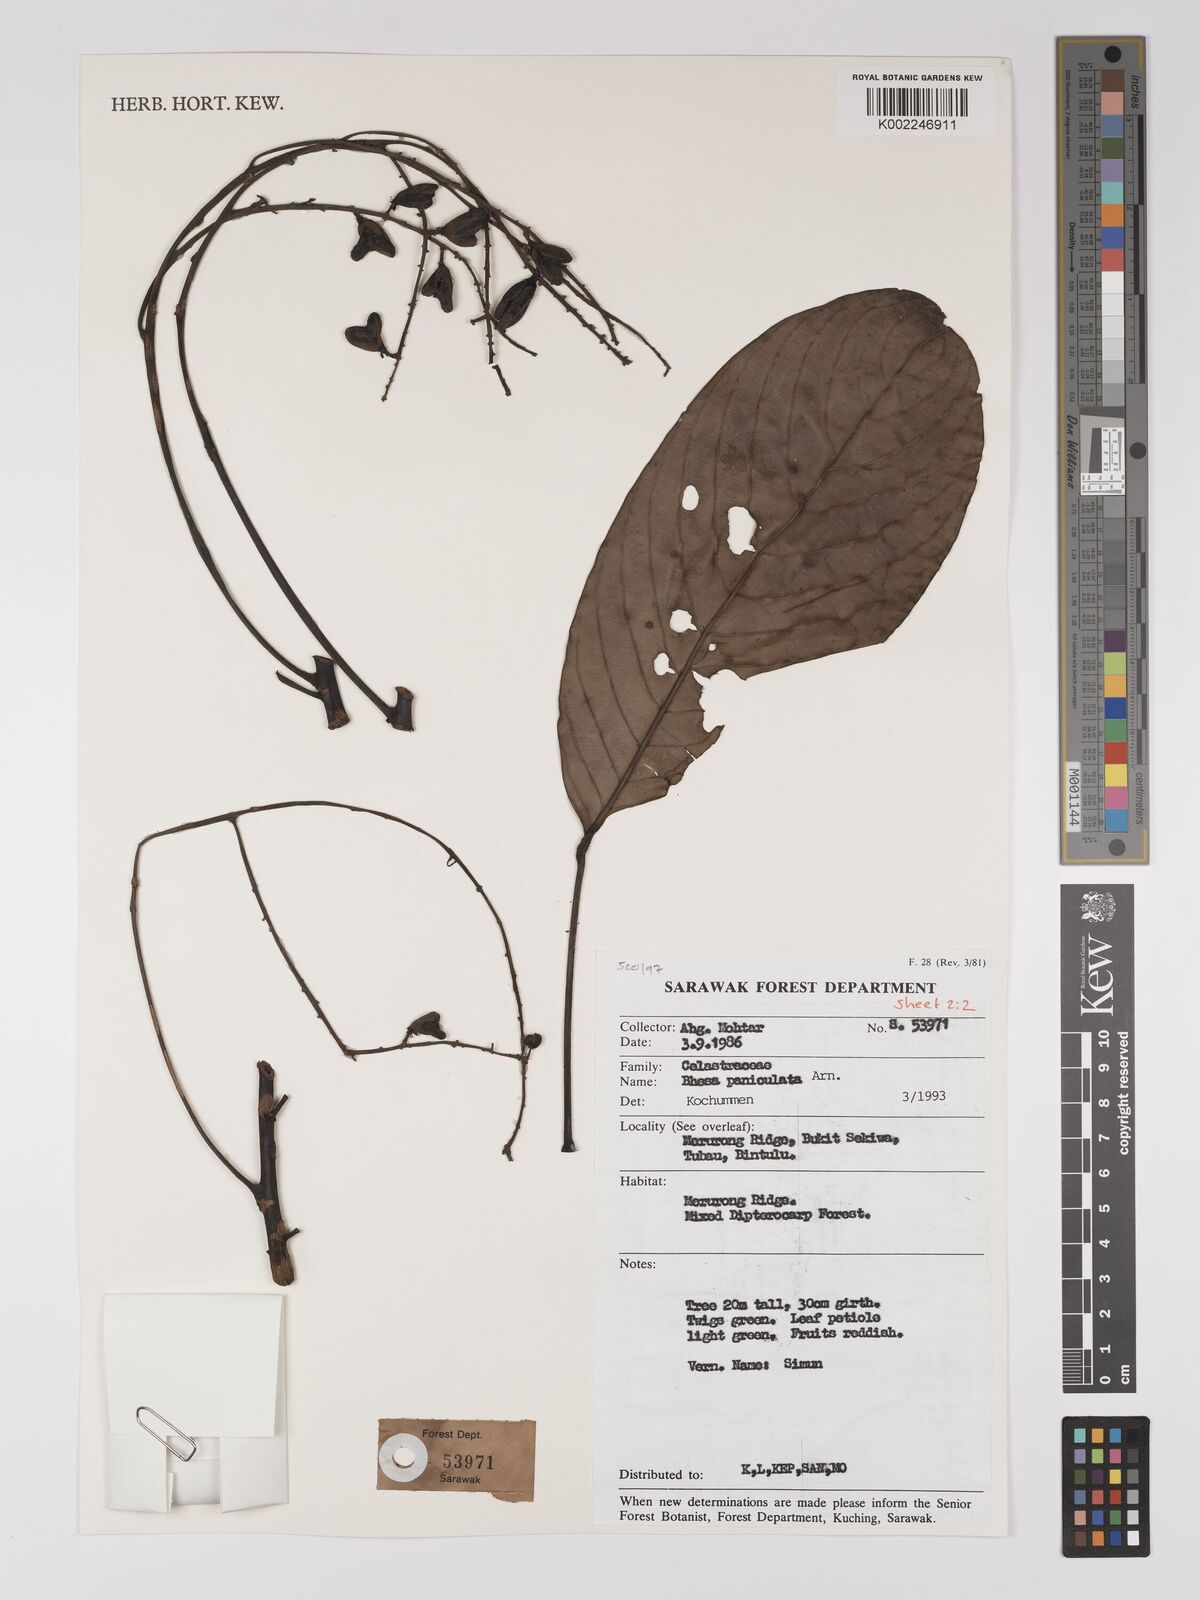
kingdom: Plantae
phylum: Tracheophyta
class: Magnoliopsida
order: Malpighiales
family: Centroplacaceae
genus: Bhesa
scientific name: Bhesa paniculata
